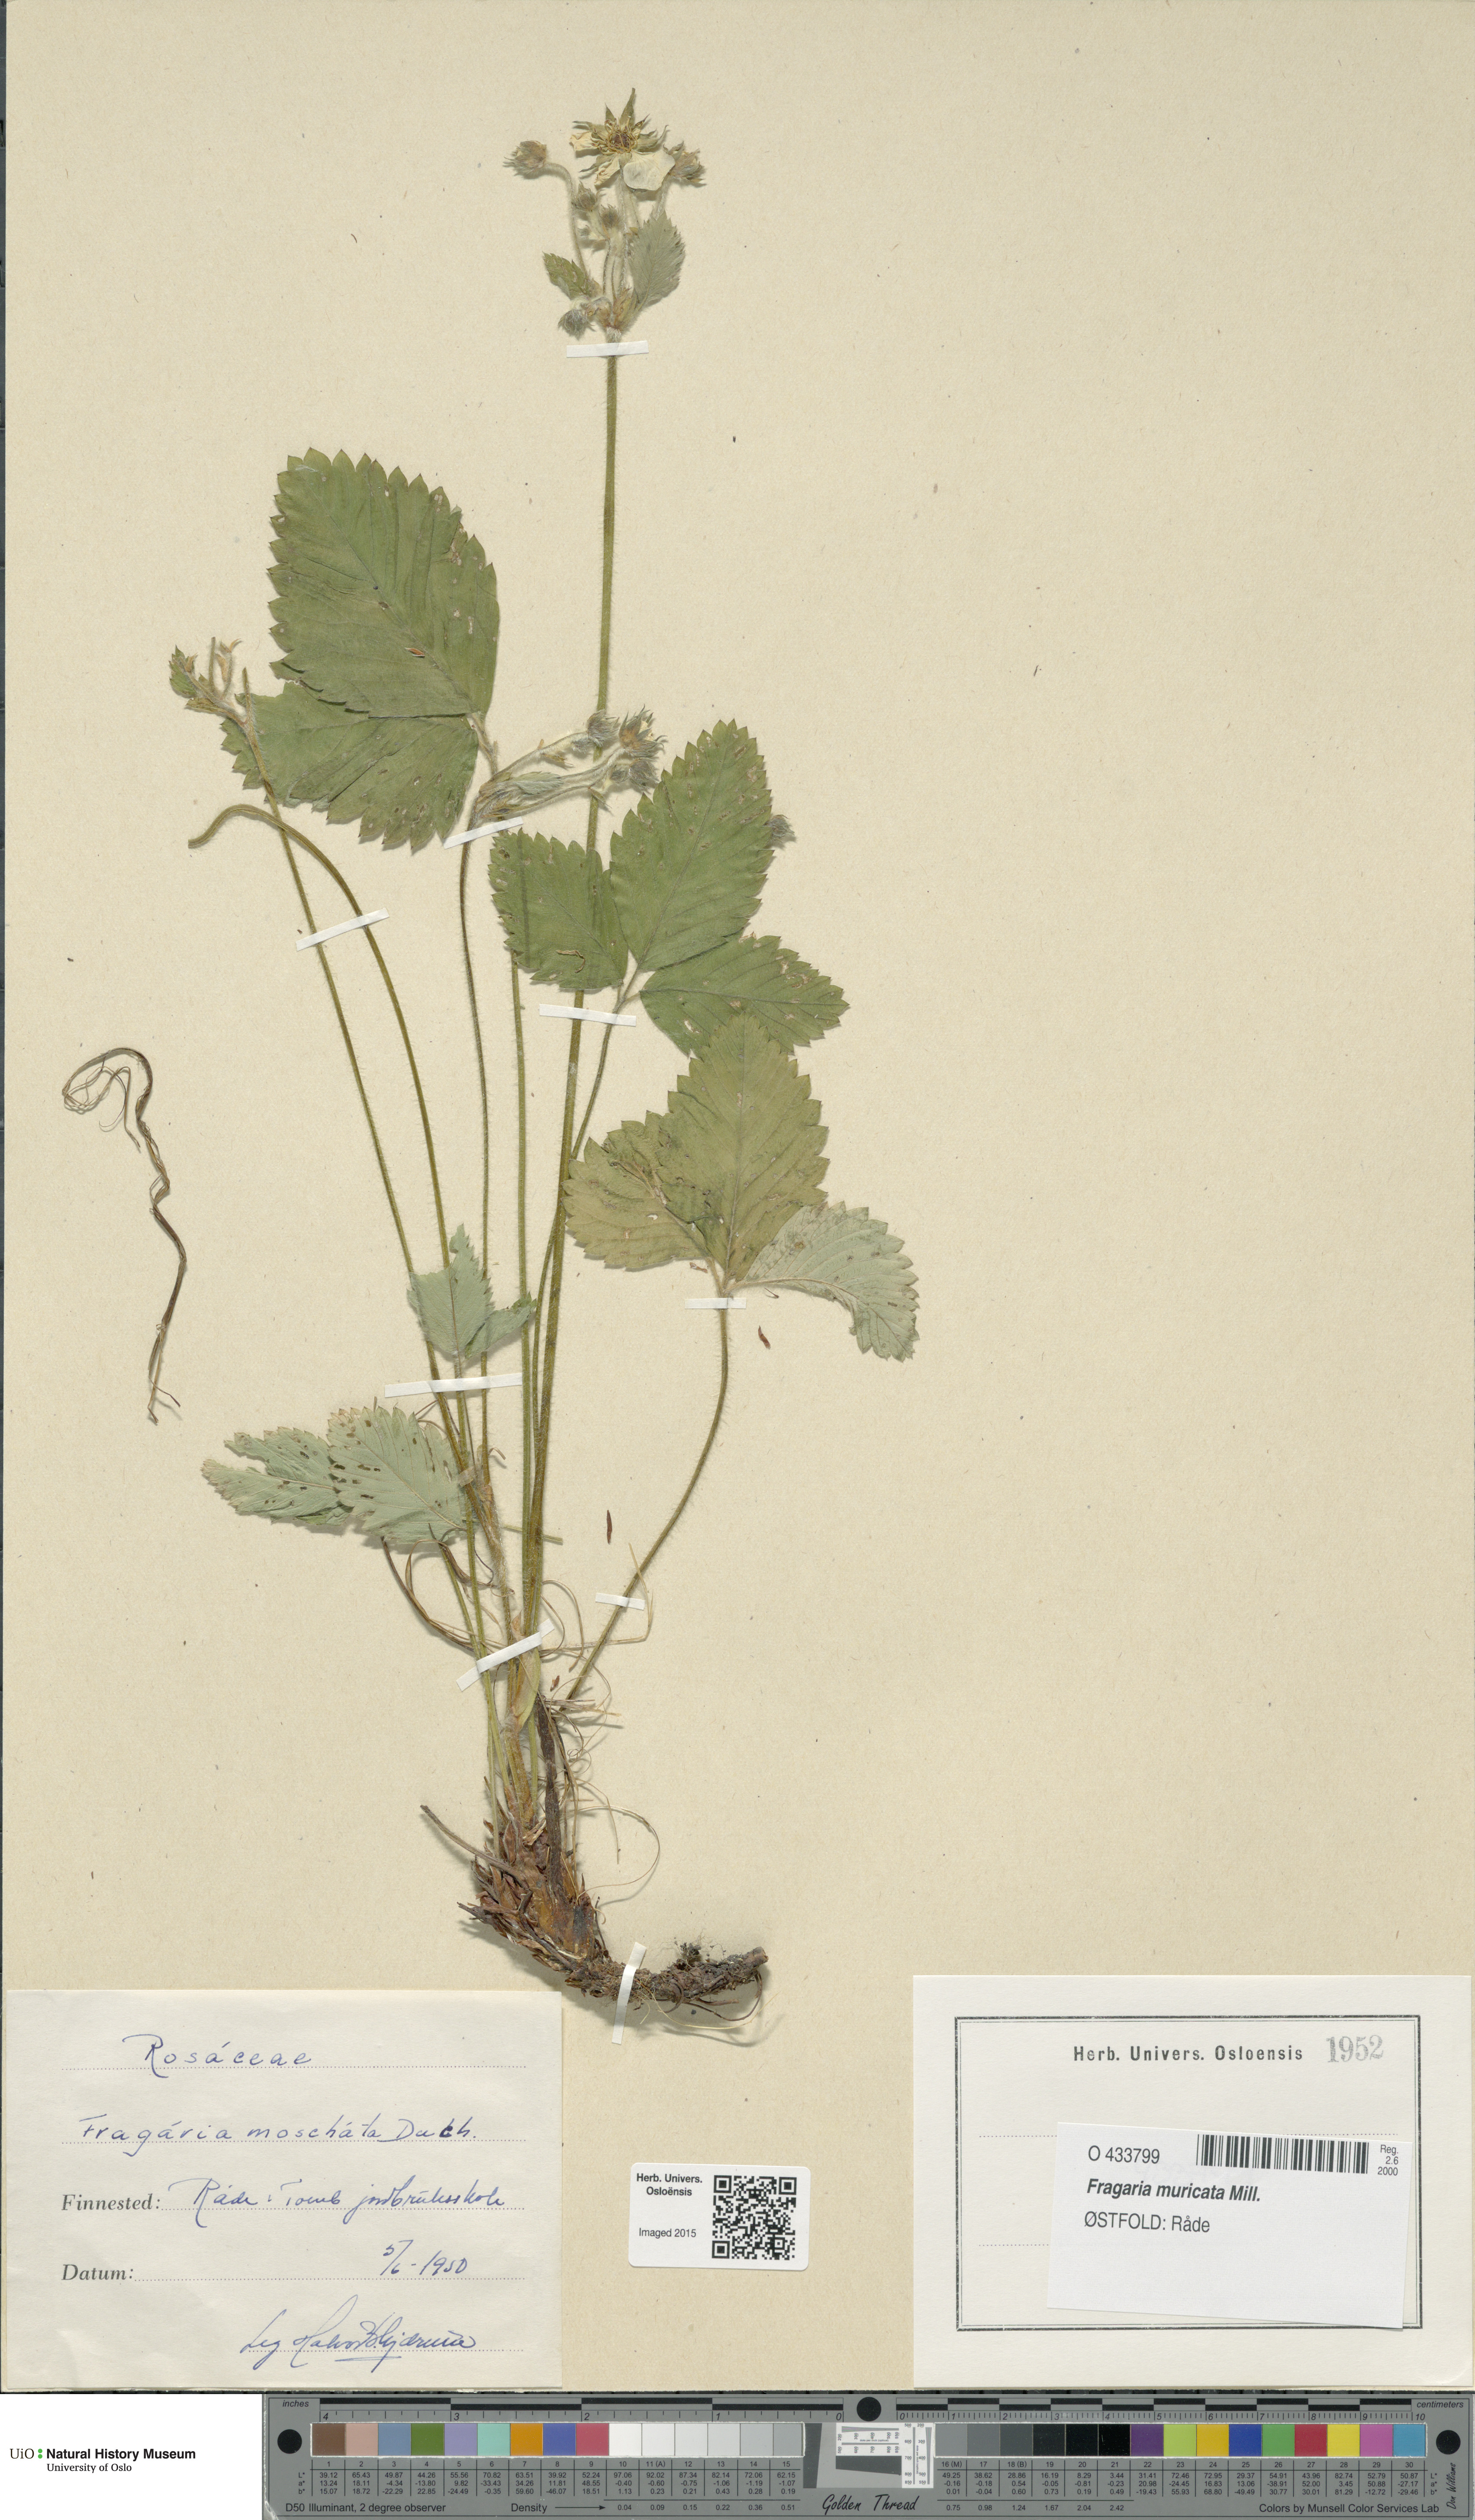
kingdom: Plantae
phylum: Tracheophyta
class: Magnoliopsida
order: Rosales
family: Rosaceae
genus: Fragaria
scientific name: Fragaria moschata
